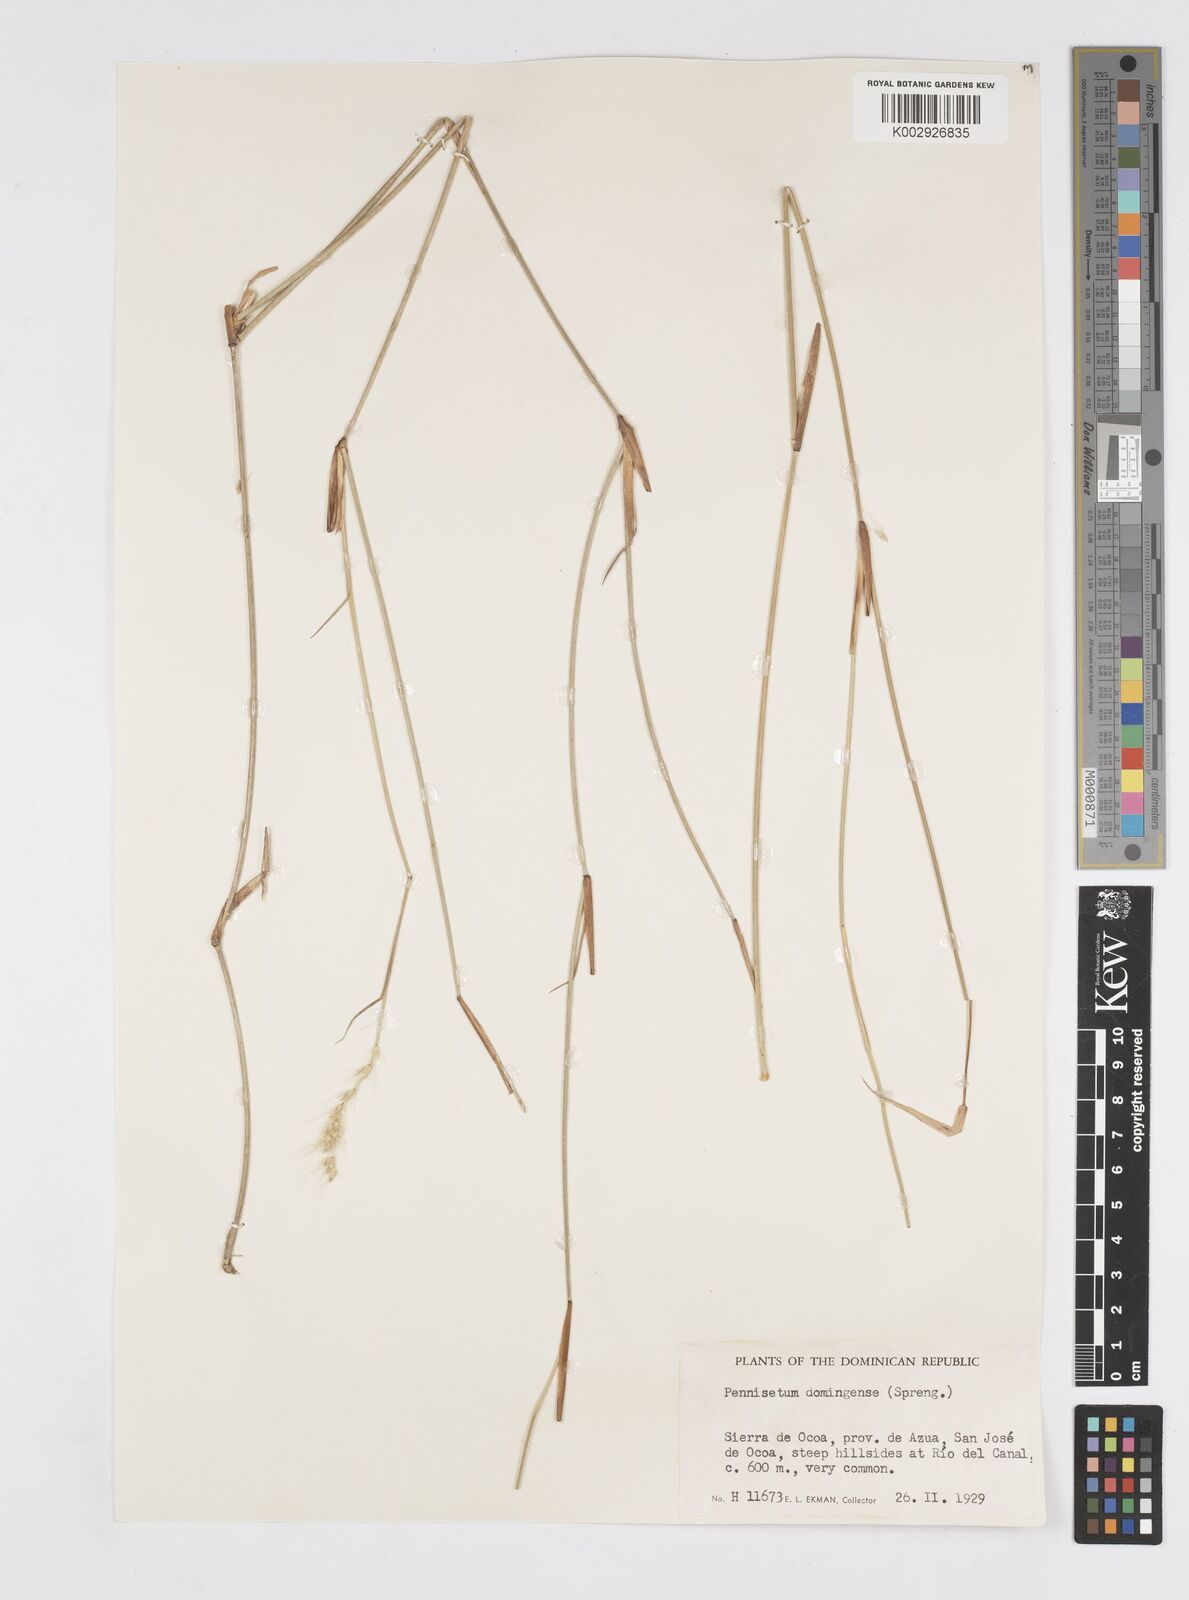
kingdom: Plantae
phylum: Tracheophyta
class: Liliopsida
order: Poales
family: Poaceae
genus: Cenchrus
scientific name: Cenchrus domingensis
